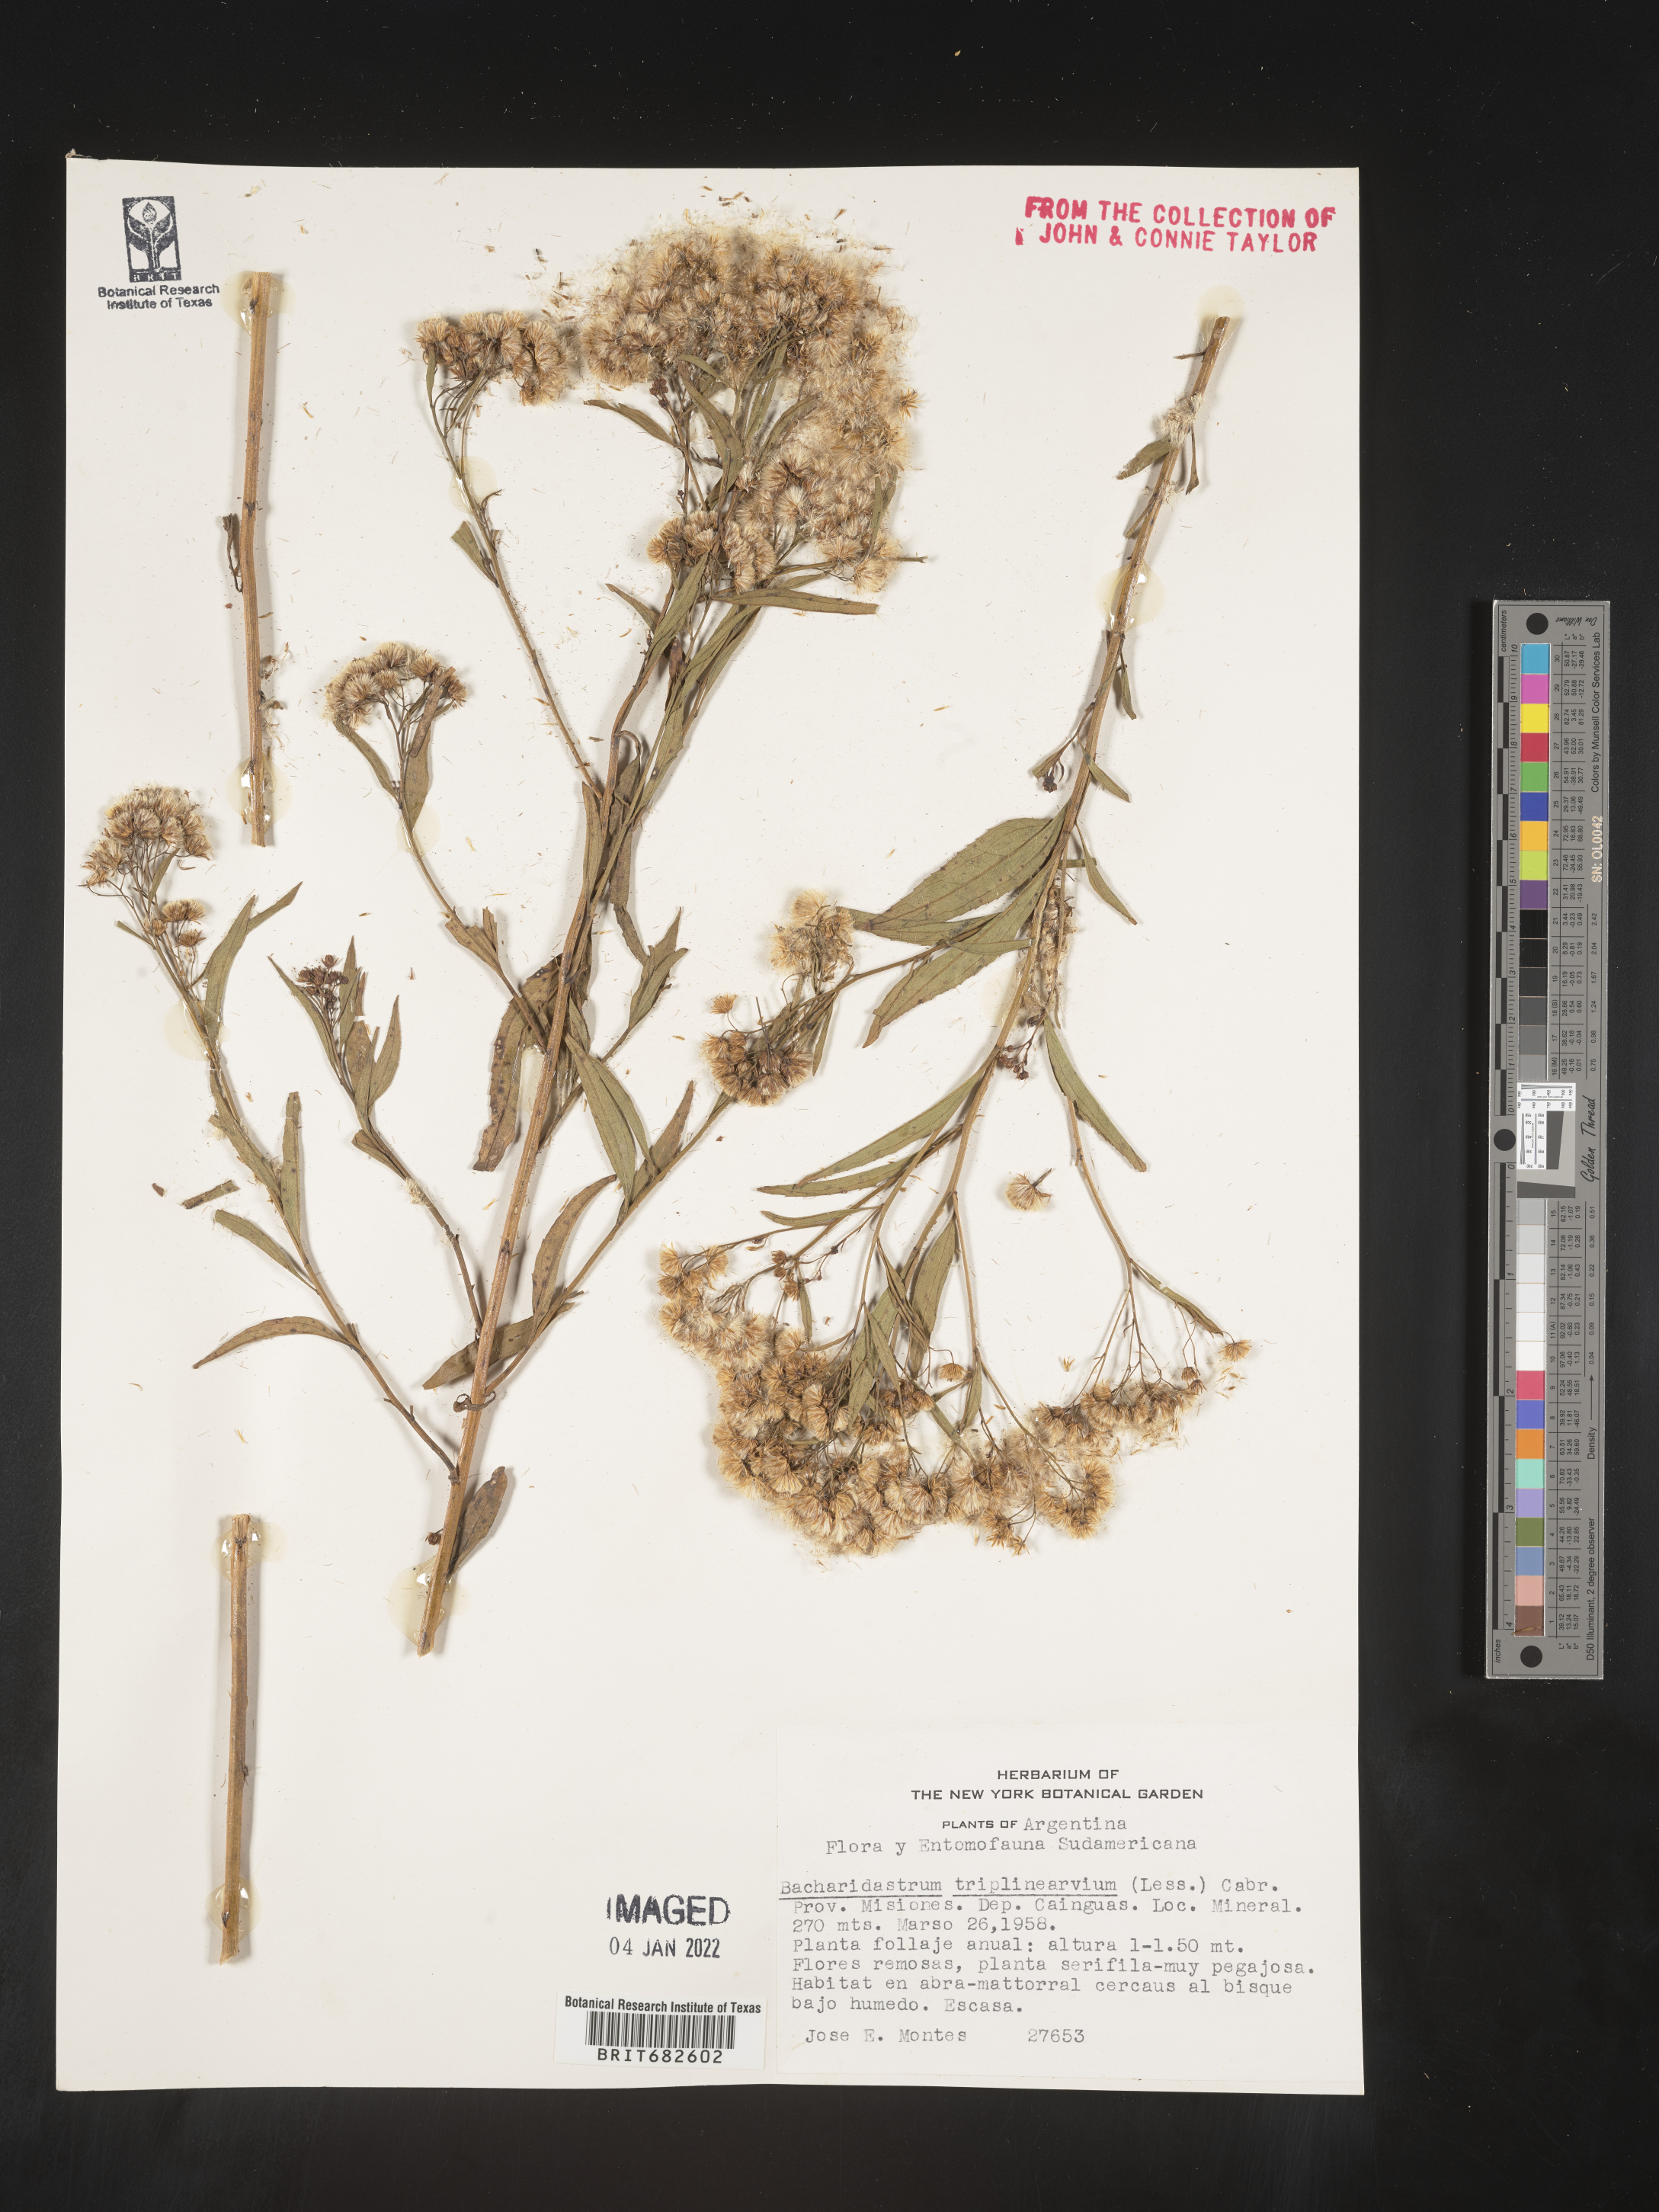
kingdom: Plantae
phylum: Tracheophyta
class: Magnoliopsida
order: Asterales
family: Asteraceae
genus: Baccharis
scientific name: Baccharis
